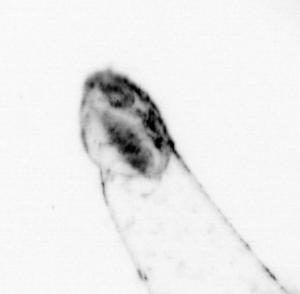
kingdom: Animalia
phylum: Arthropoda
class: Copepoda
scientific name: Copepoda
